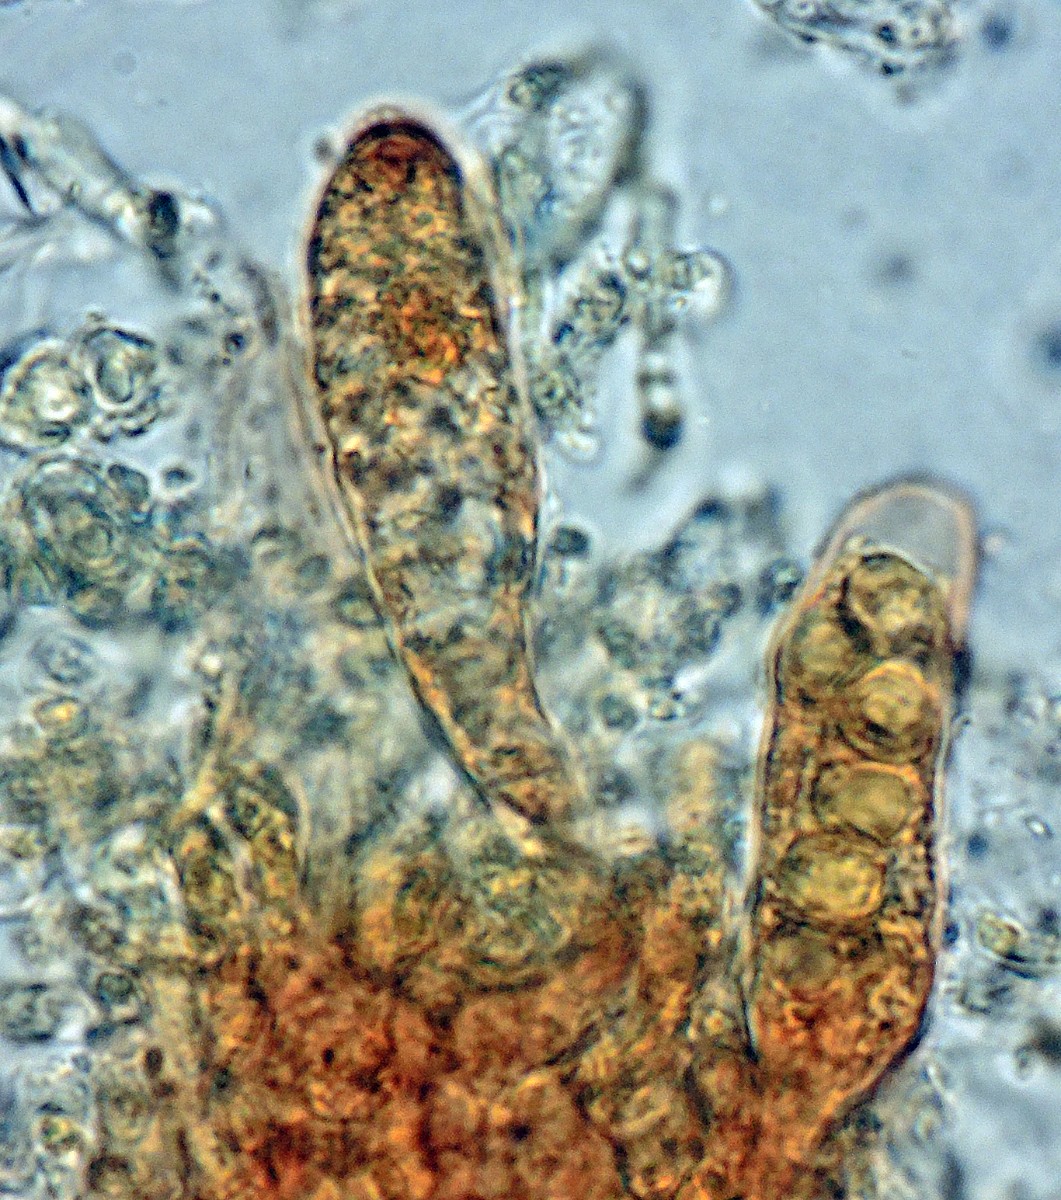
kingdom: Fungi
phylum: Ascomycota
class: Lecanoromycetes
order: Baeomycetales
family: Trapeliaceae
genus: Trapeliopsis
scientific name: Trapeliopsis flexuosa
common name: spanskgrøn skivelav
